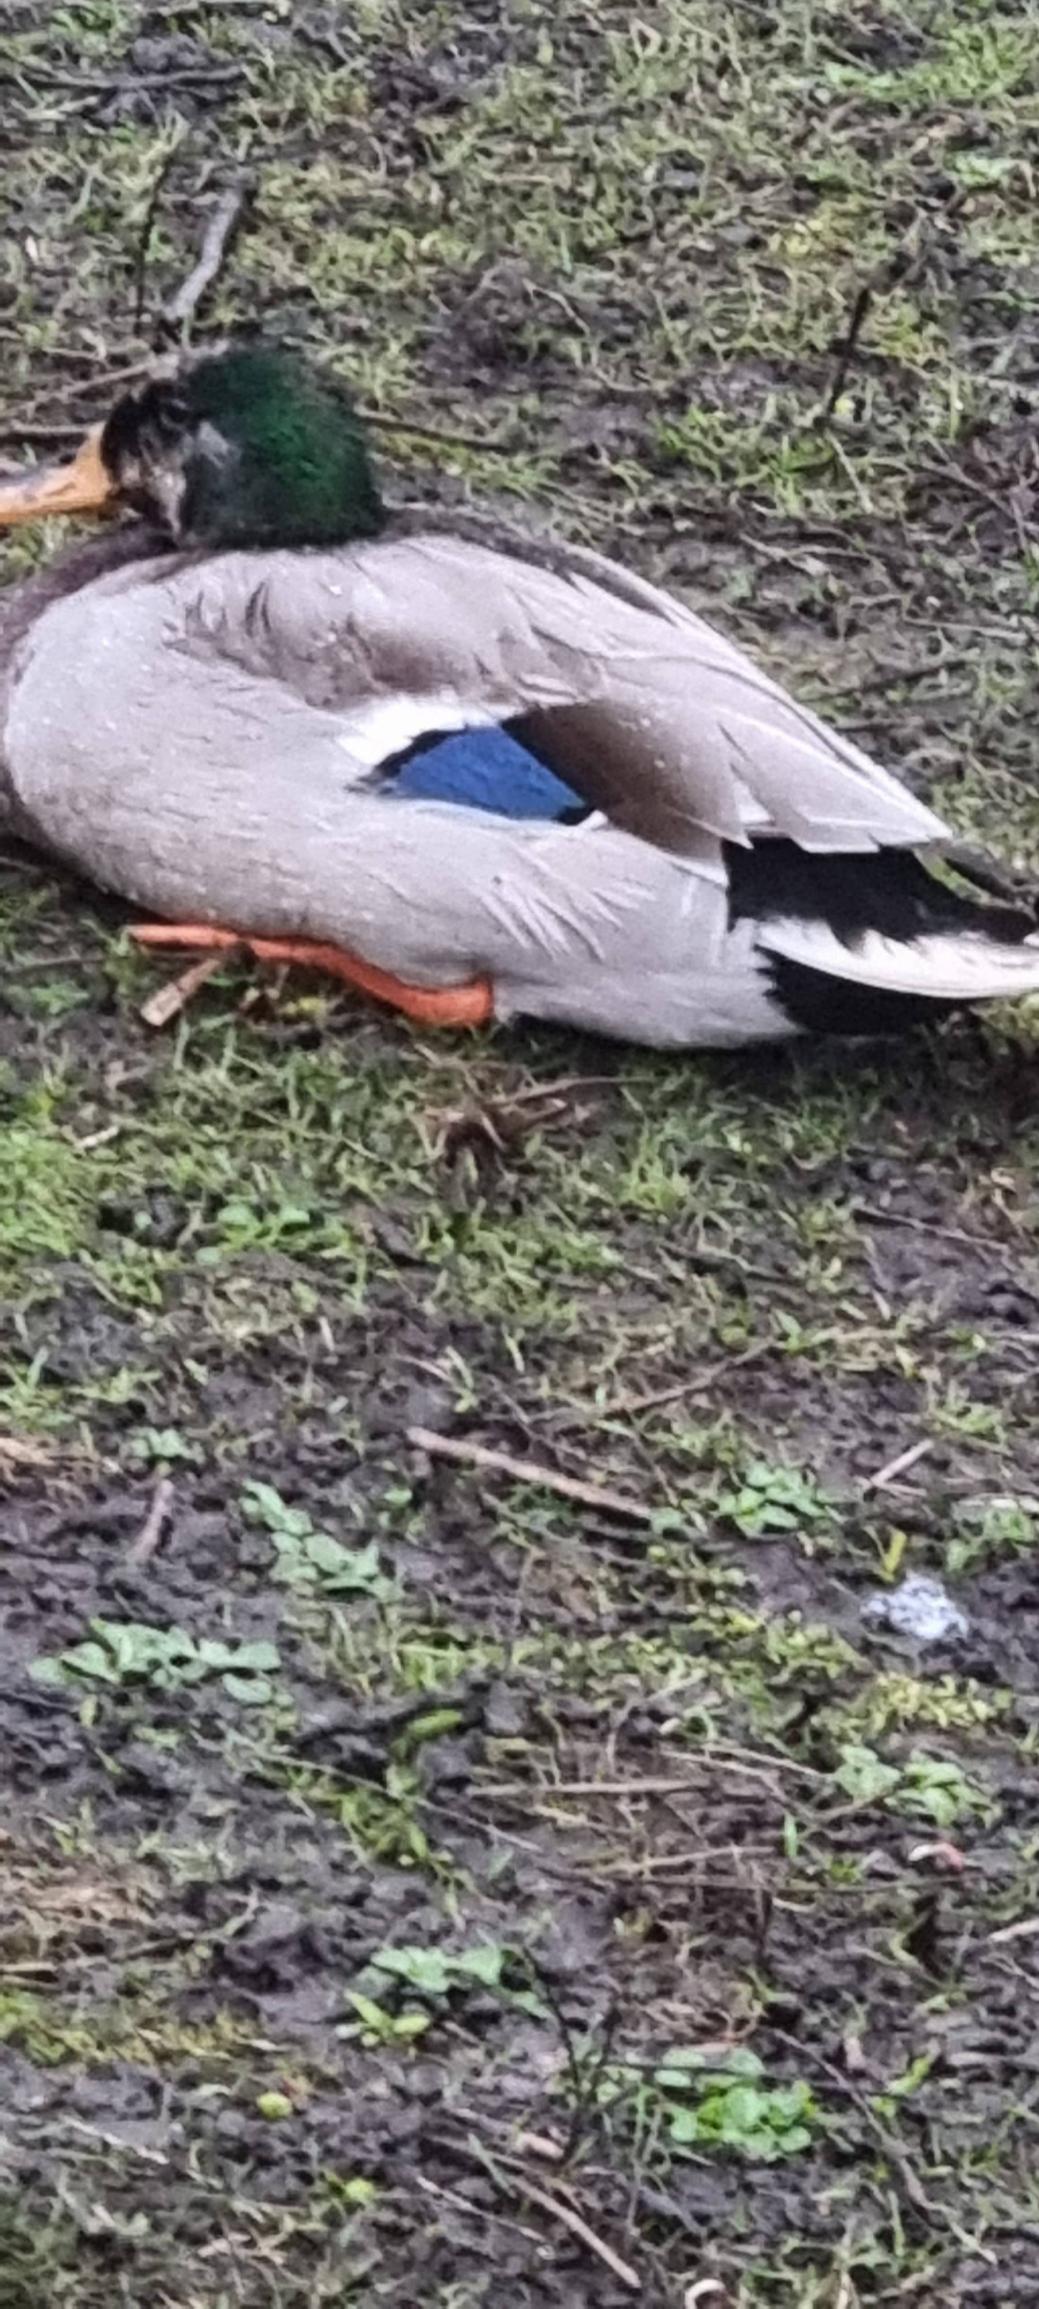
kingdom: Animalia
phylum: Chordata
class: Aves
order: Anseriformes
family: Anatidae
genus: Anas
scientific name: Anas platyrhynchos
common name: Gråand
